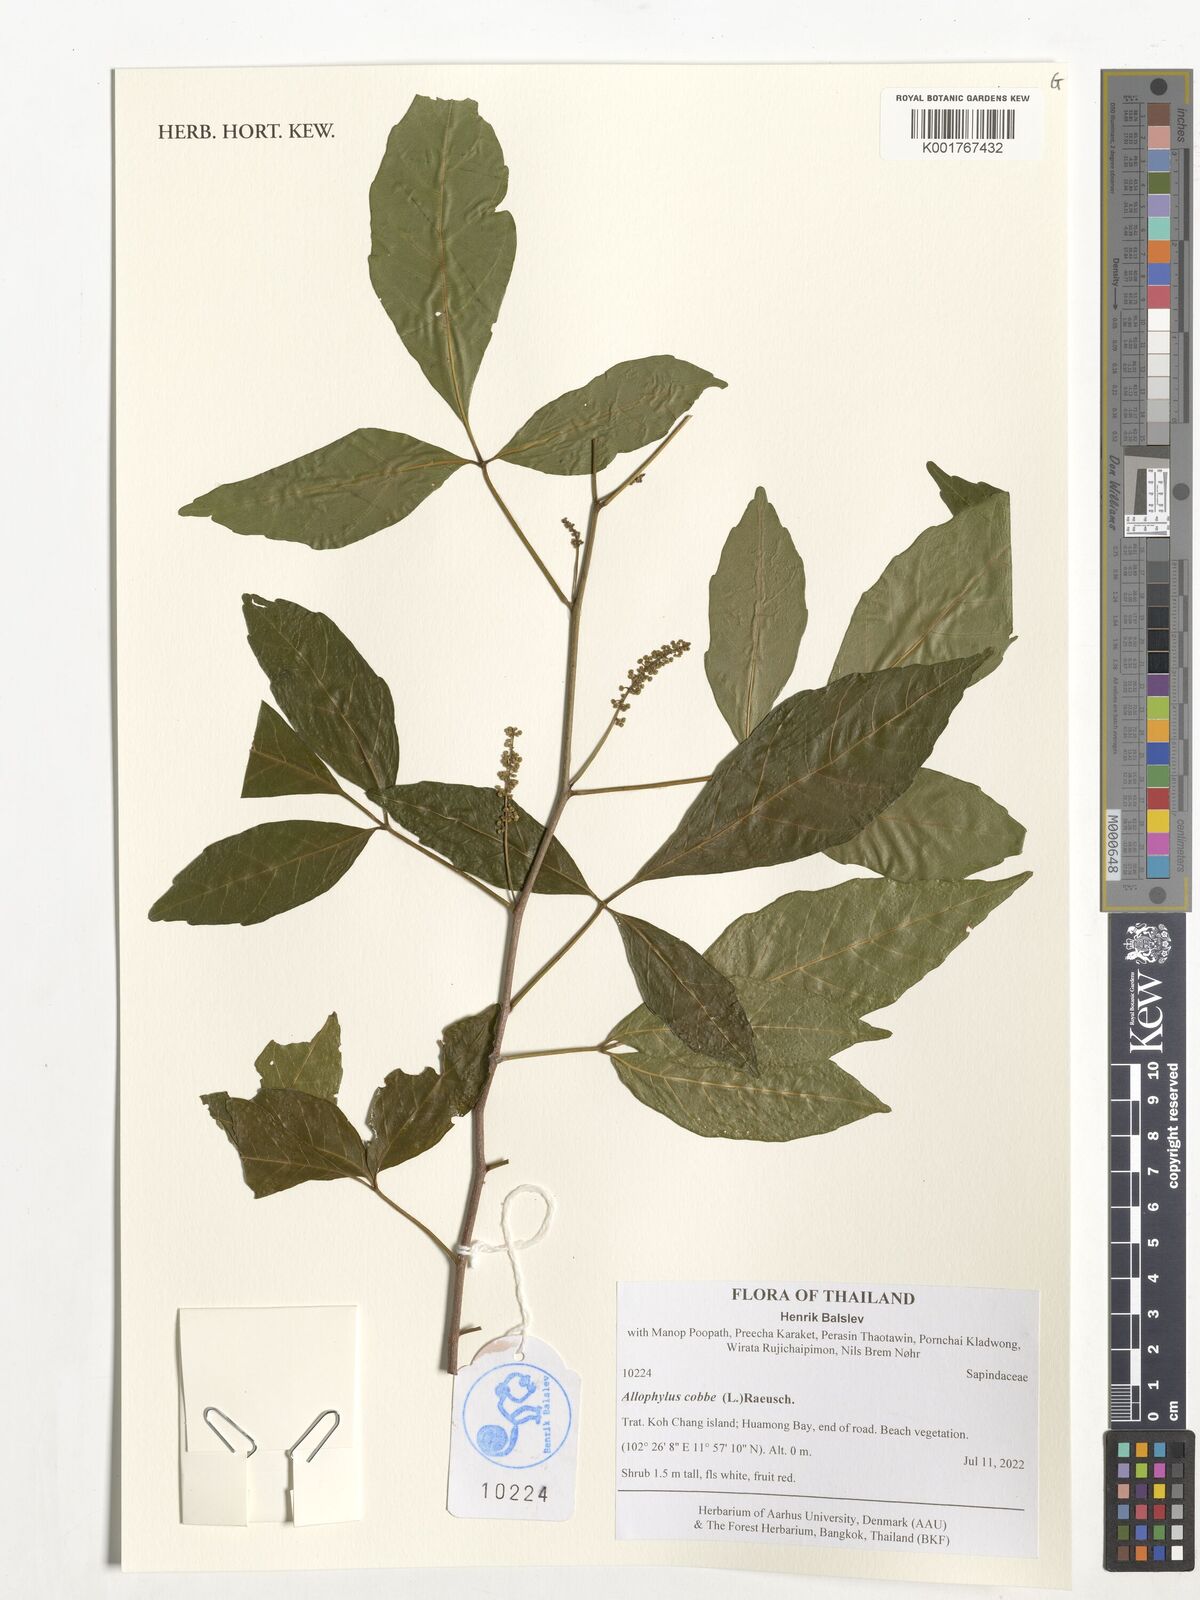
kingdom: Plantae
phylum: Tracheophyta
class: Magnoliopsida
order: Sapindales
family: Sapindaceae
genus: Allophylus
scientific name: Allophylus cobbe
